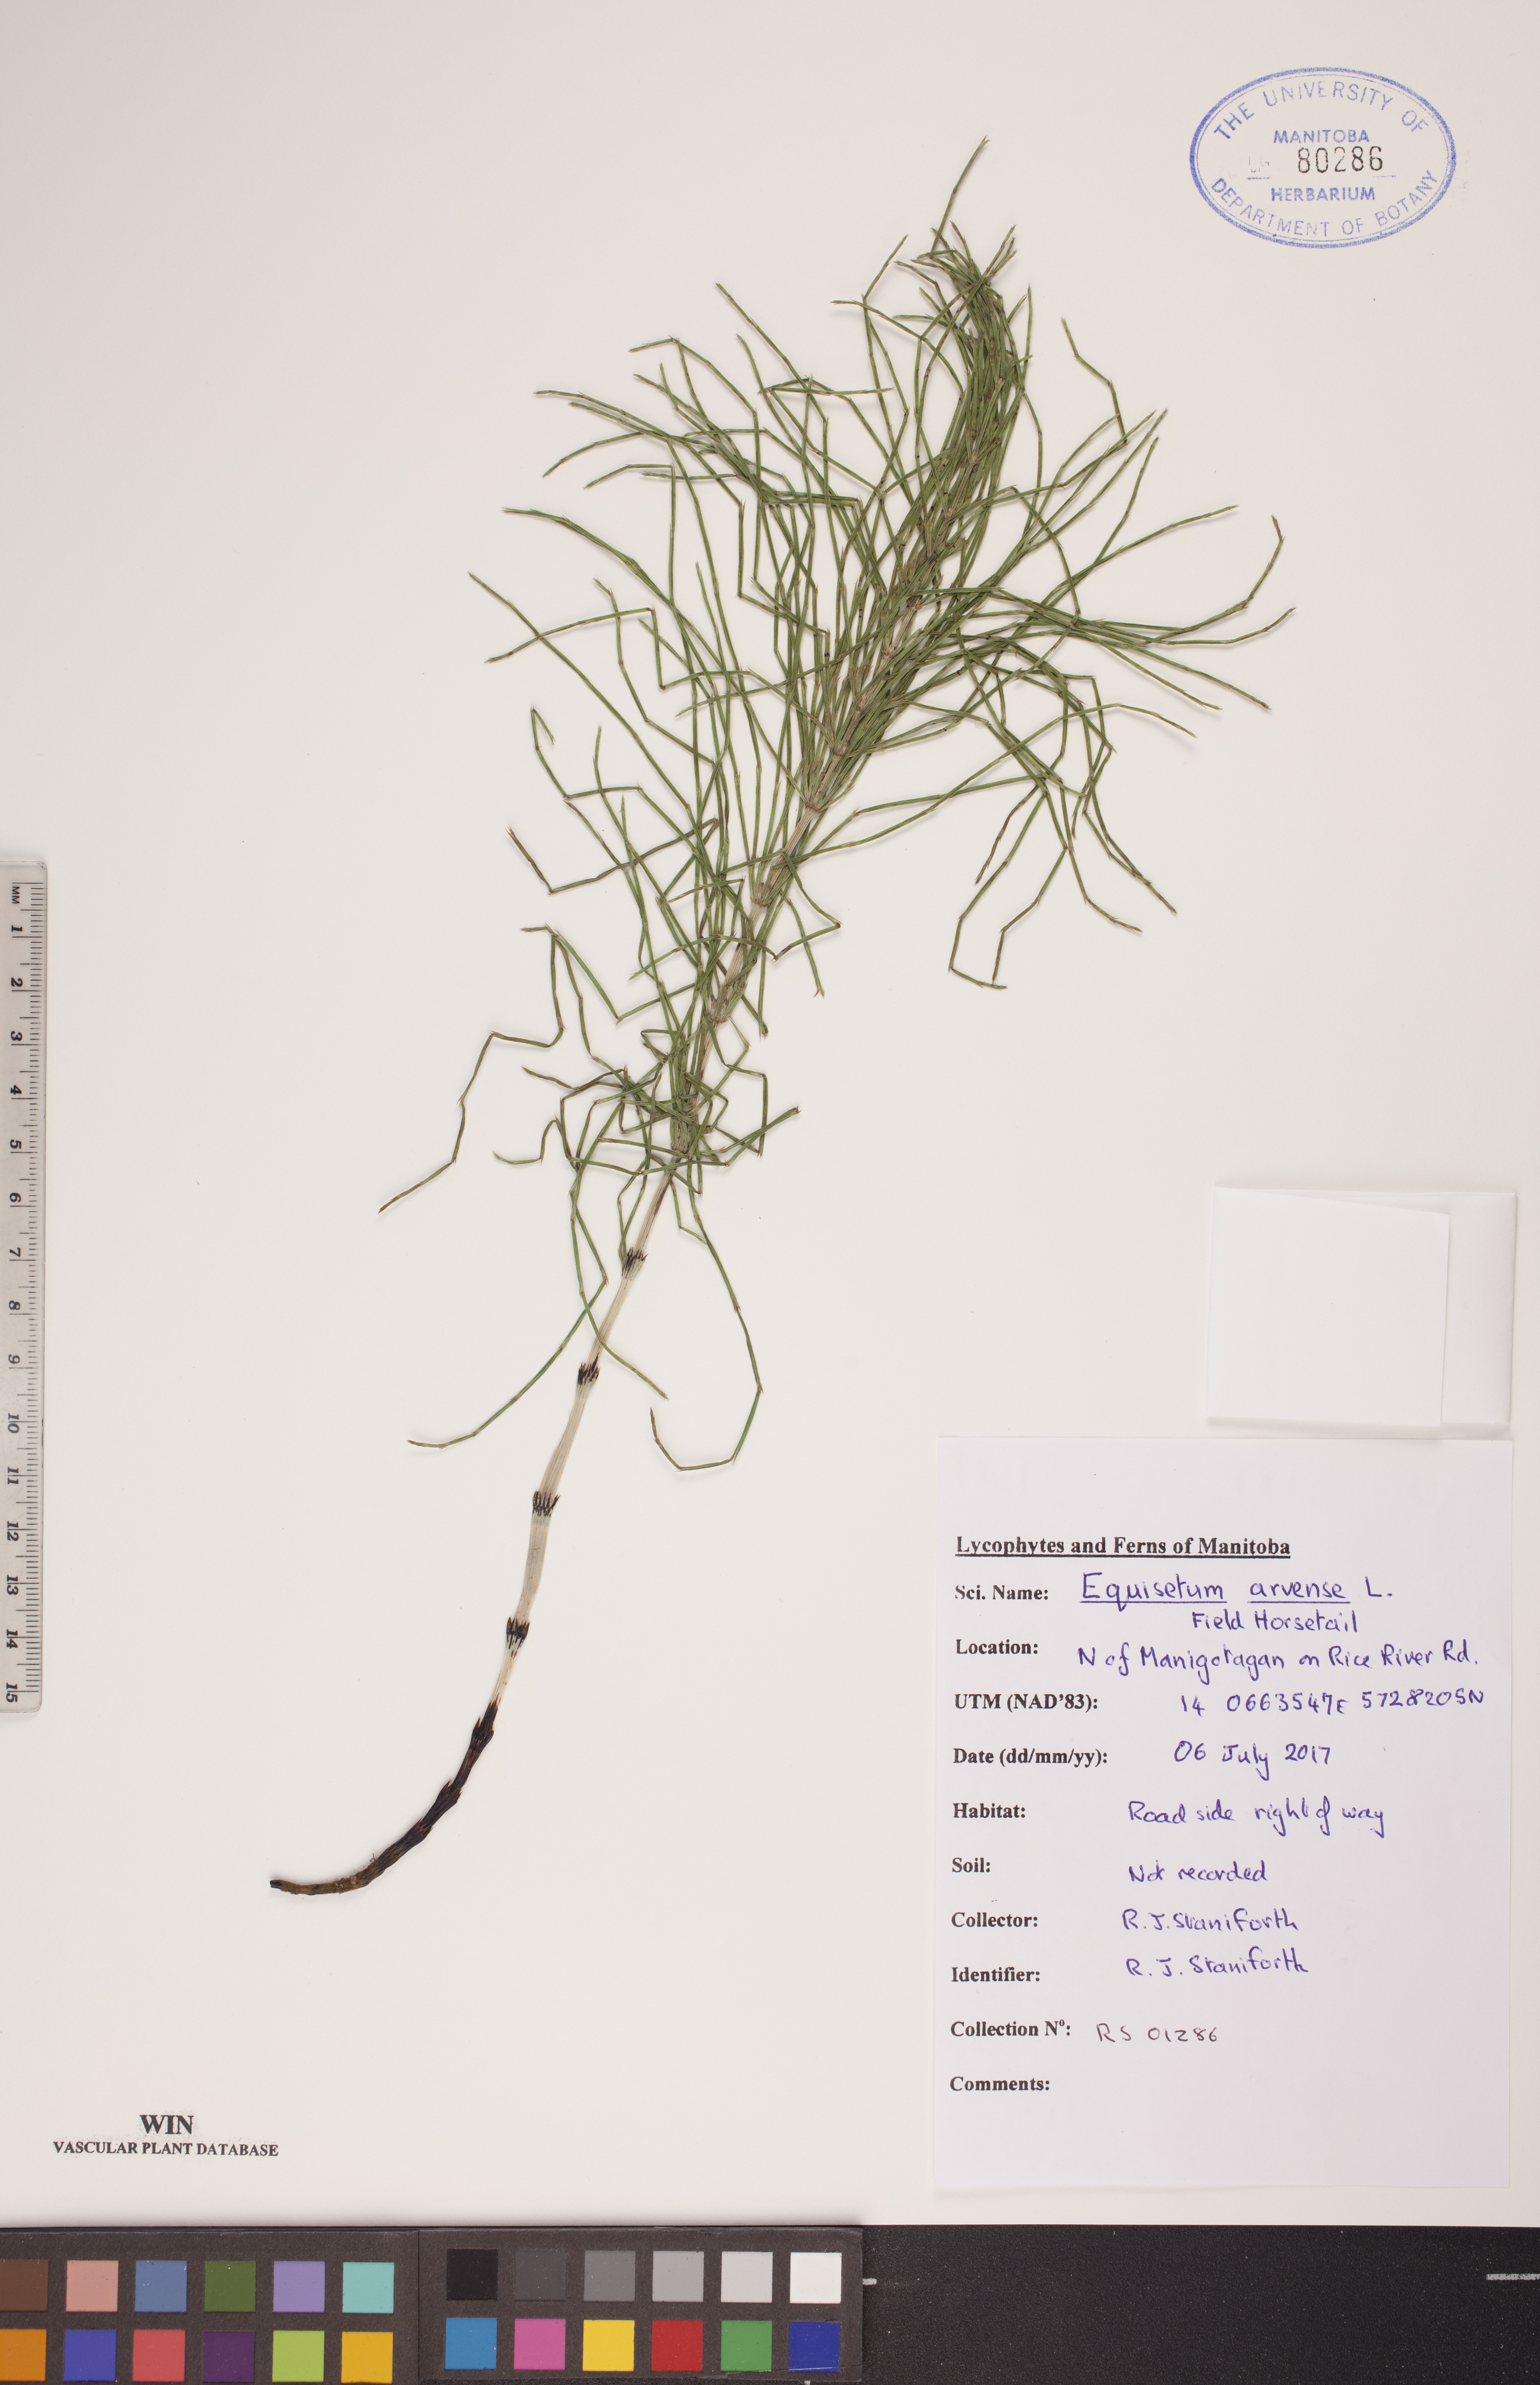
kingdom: Plantae
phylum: Tracheophyta
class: Polypodiopsida
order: Equisetales
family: Equisetaceae
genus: Equisetum
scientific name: Equisetum arvense
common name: Field horsetail
